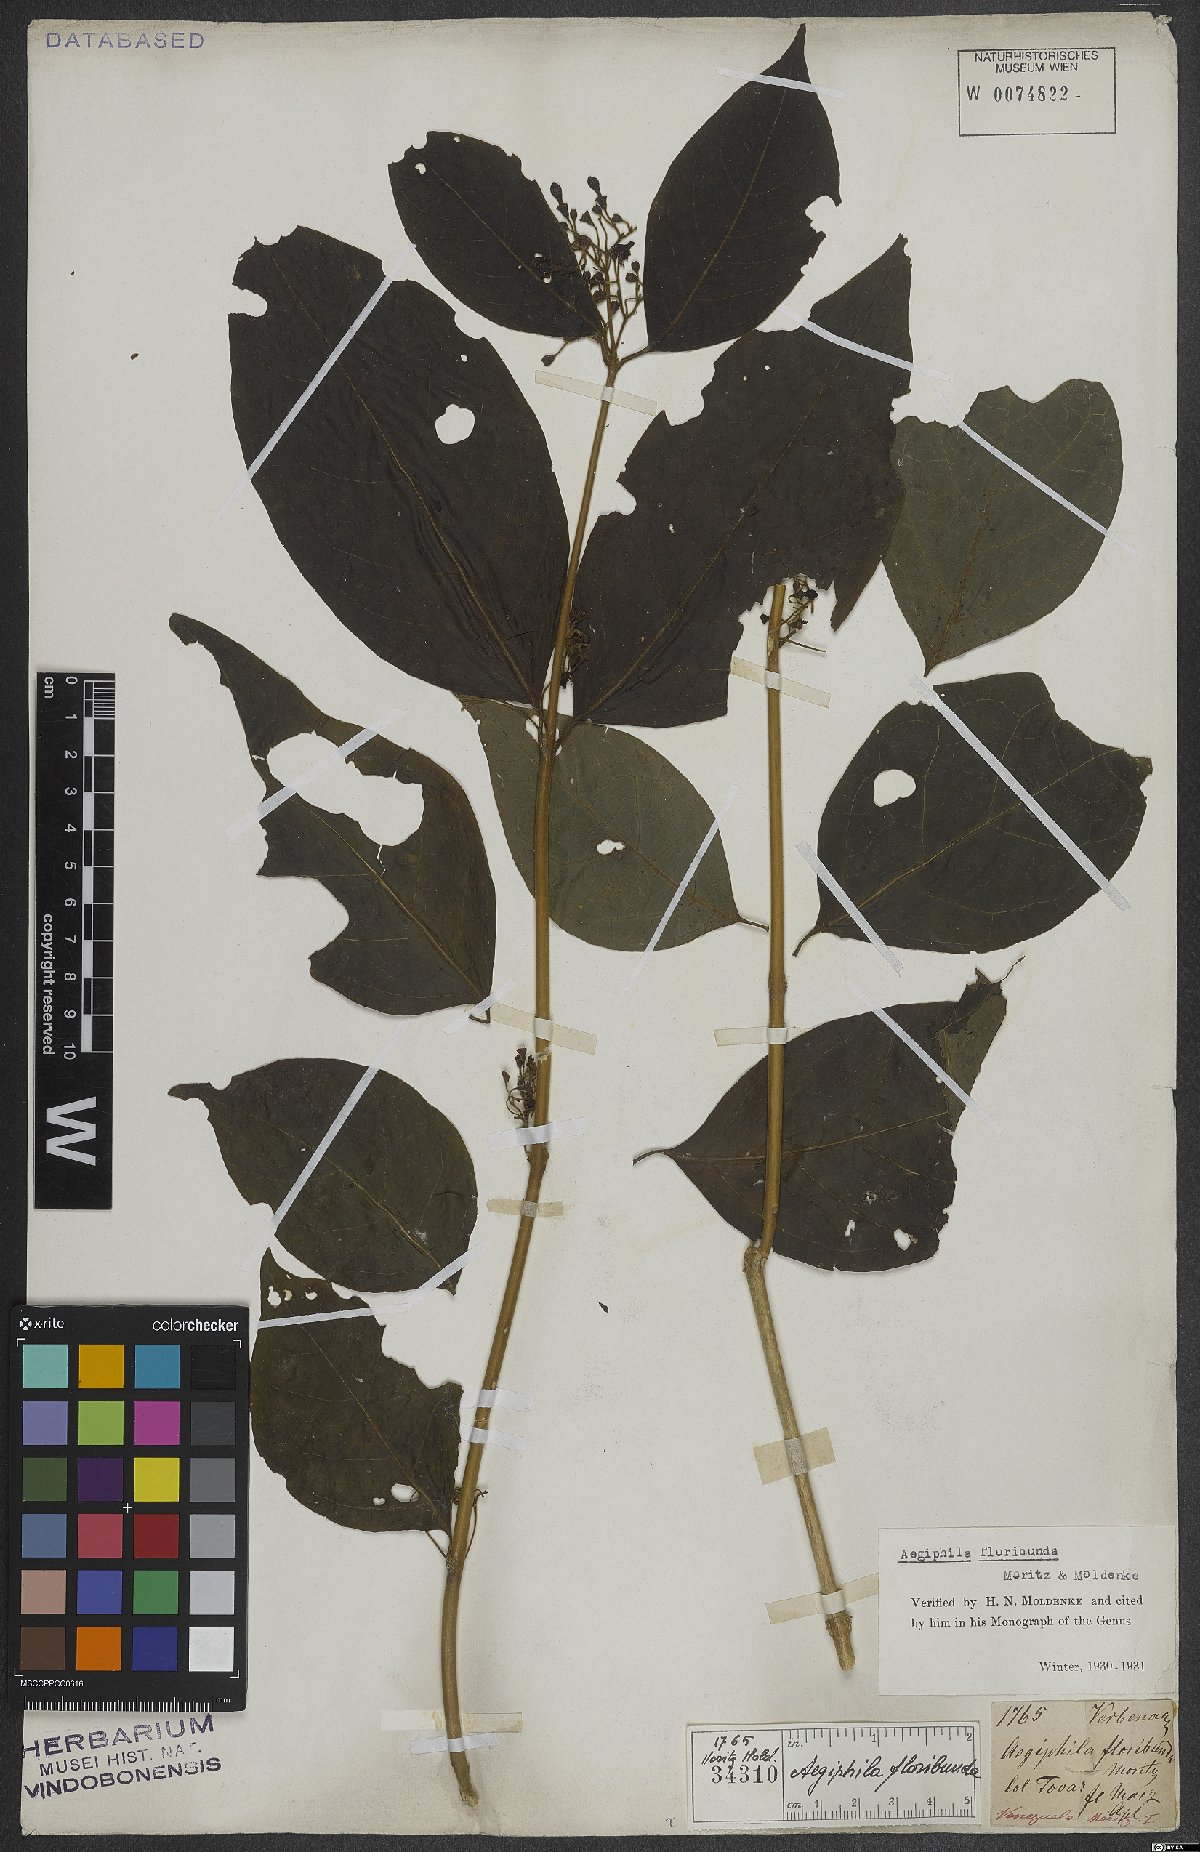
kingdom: Plantae
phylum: Tracheophyta
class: Magnoliopsida
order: Lamiales
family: Lamiaceae
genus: Aegiphila
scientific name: Aegiphila floribunda
